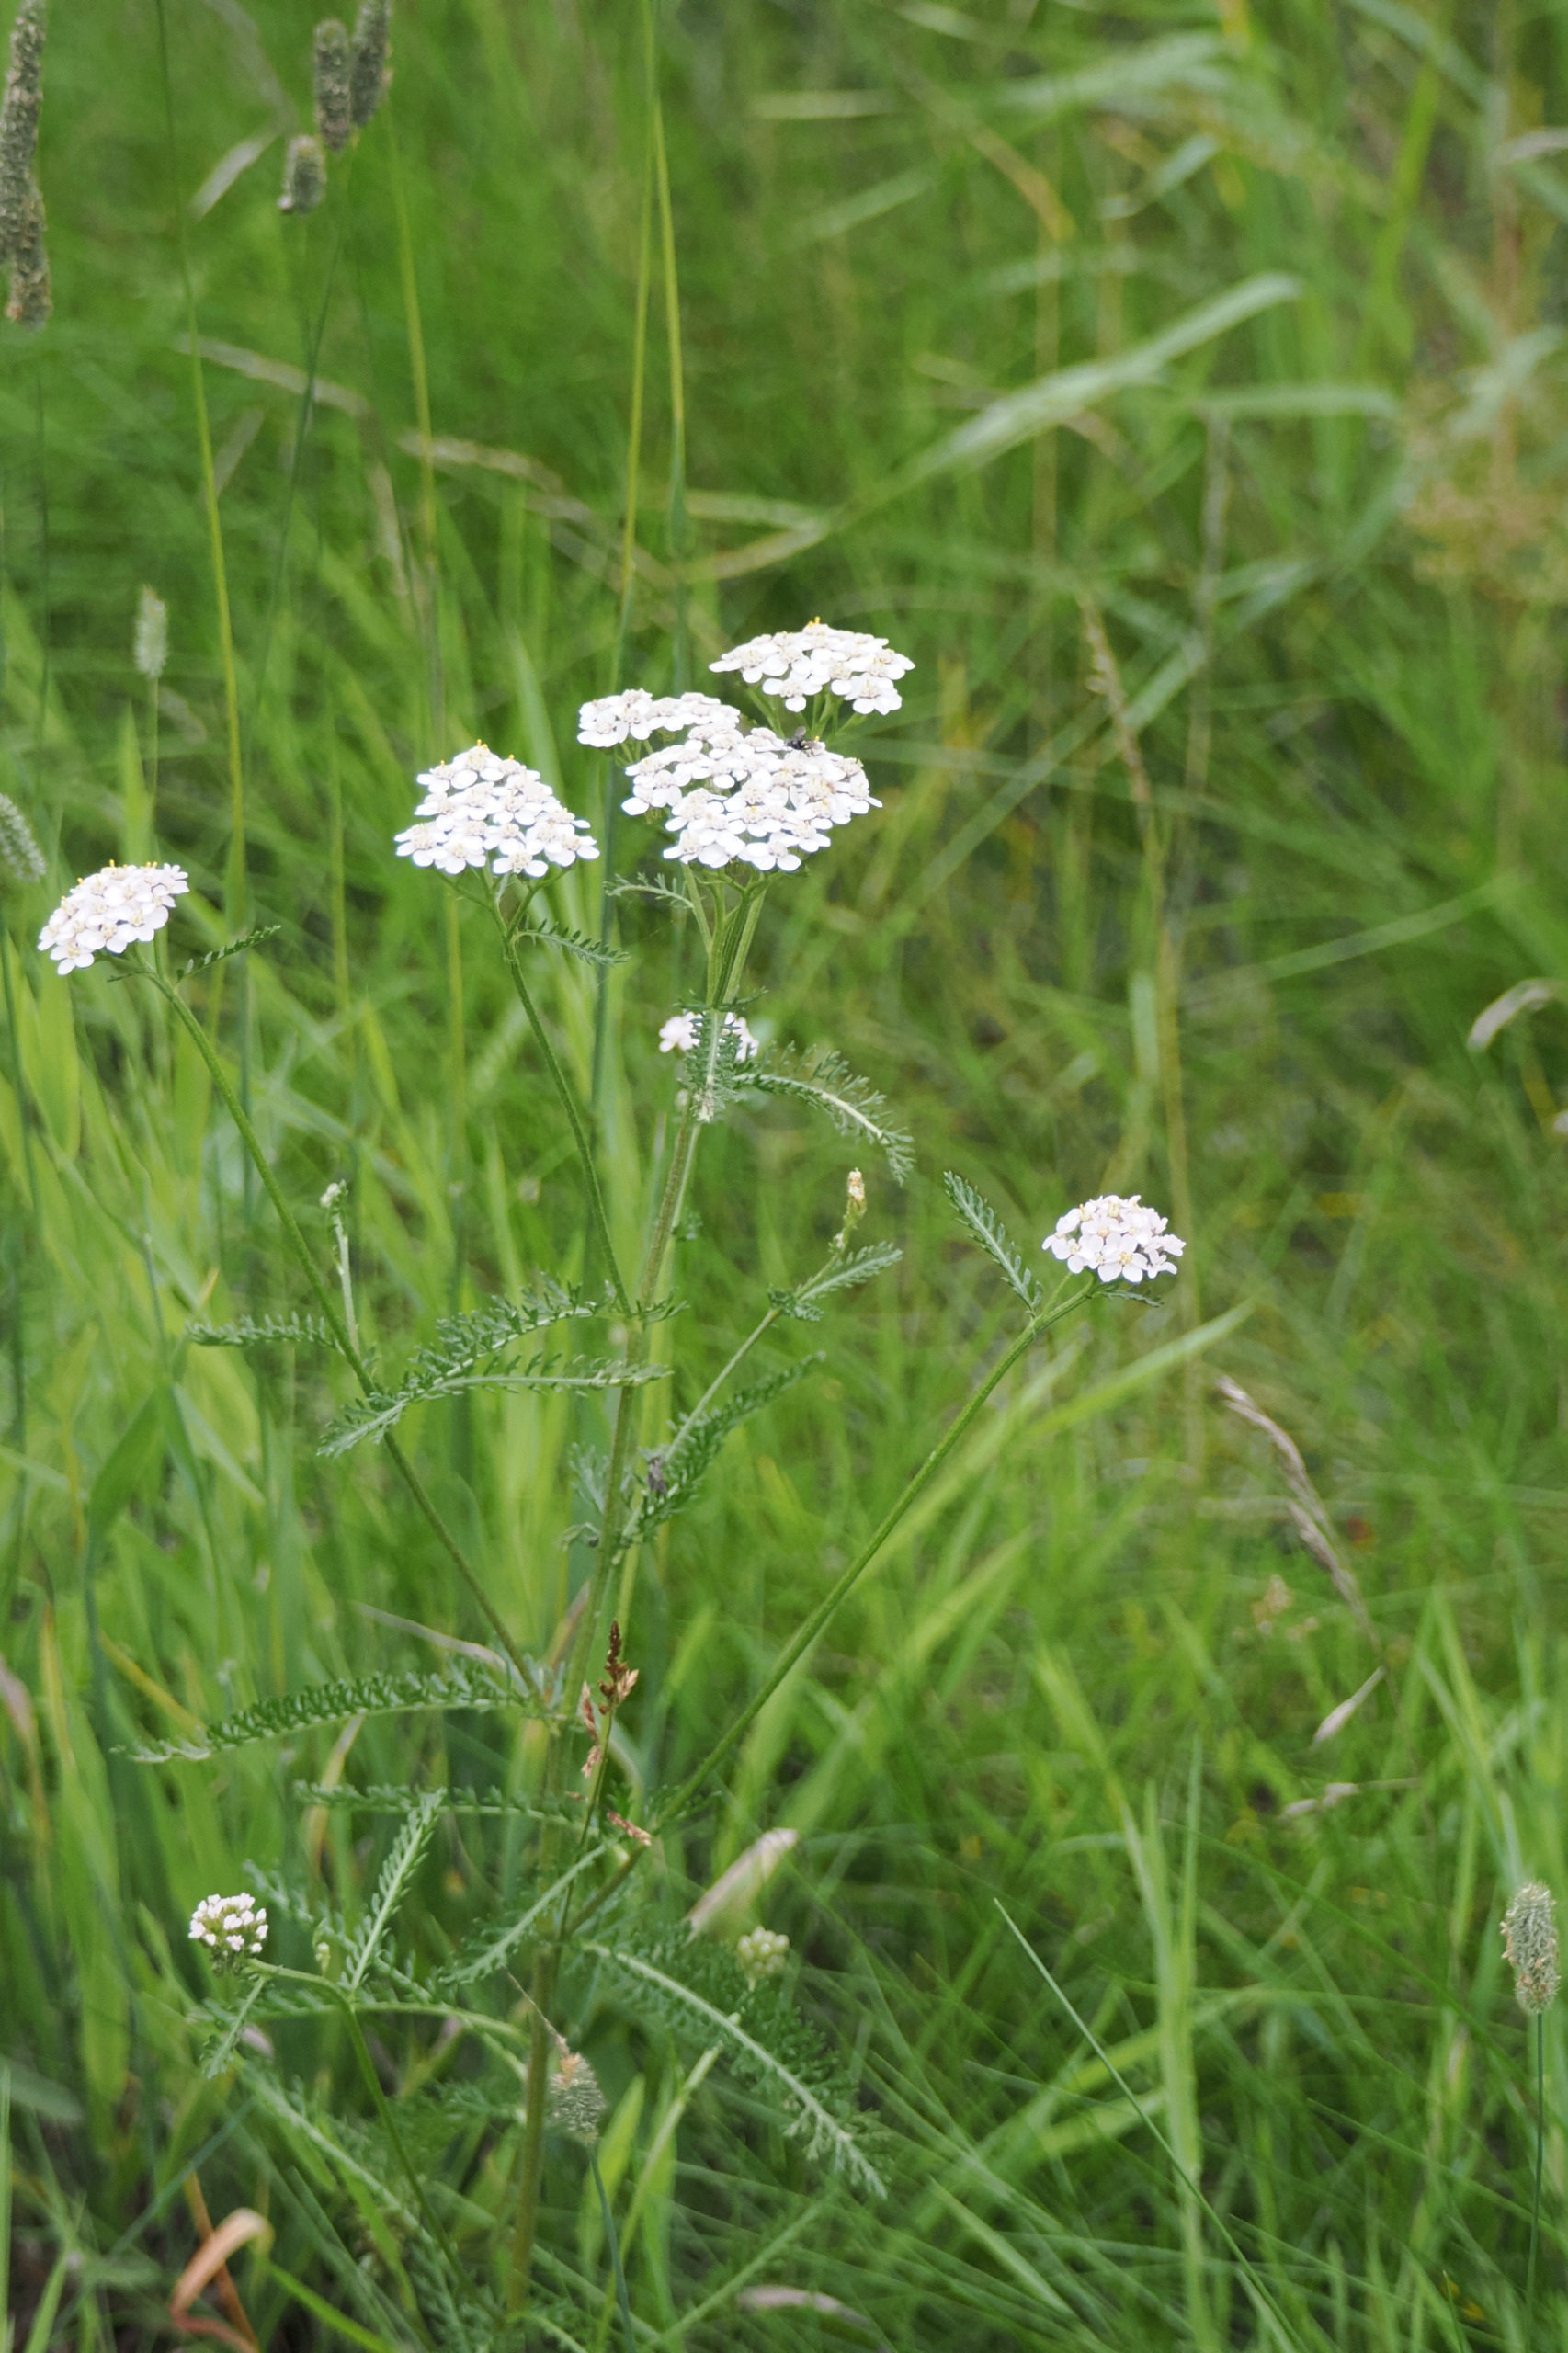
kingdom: Plantae
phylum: Tracheophyta
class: Magnoliopsida
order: Asterales
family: Asteraceae
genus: Achillea
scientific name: Achillea millefolium
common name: Almindelig røllike
